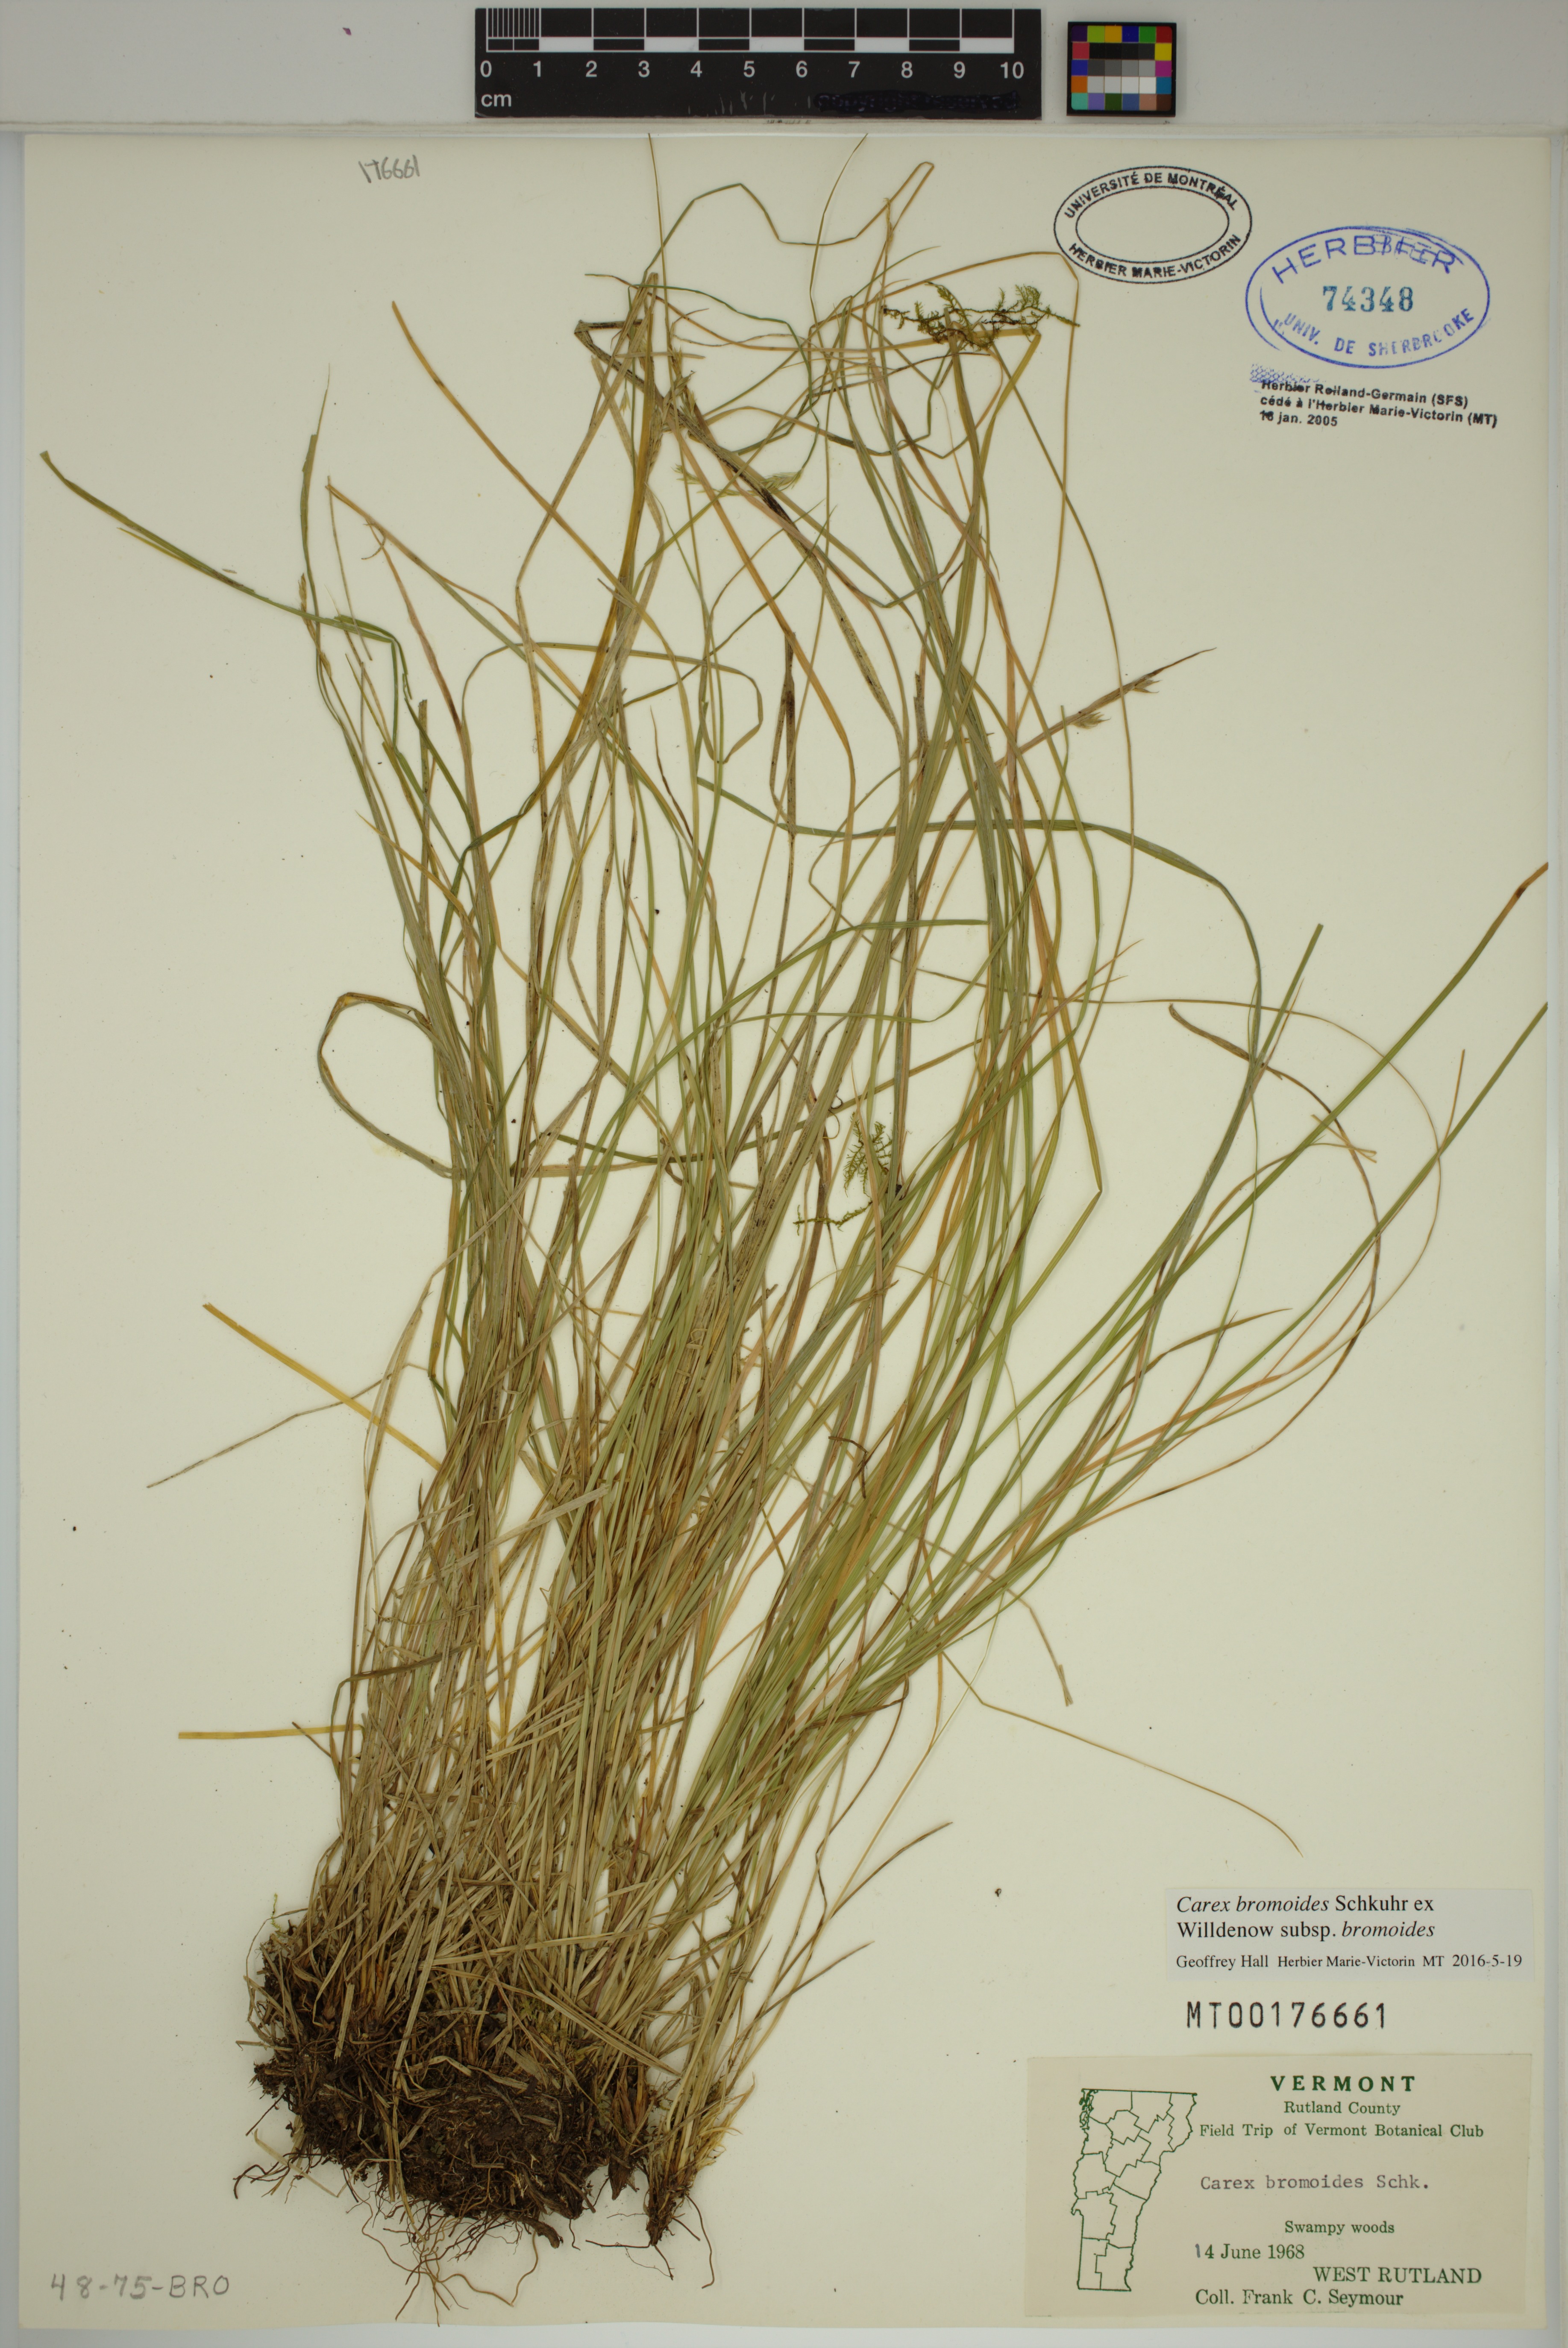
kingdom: Plantae
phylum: Tracheophyta
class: Liliopsida
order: Poales
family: Cyperaceae
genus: Carex
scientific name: Carex bromoides
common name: Brome hummock sedge
